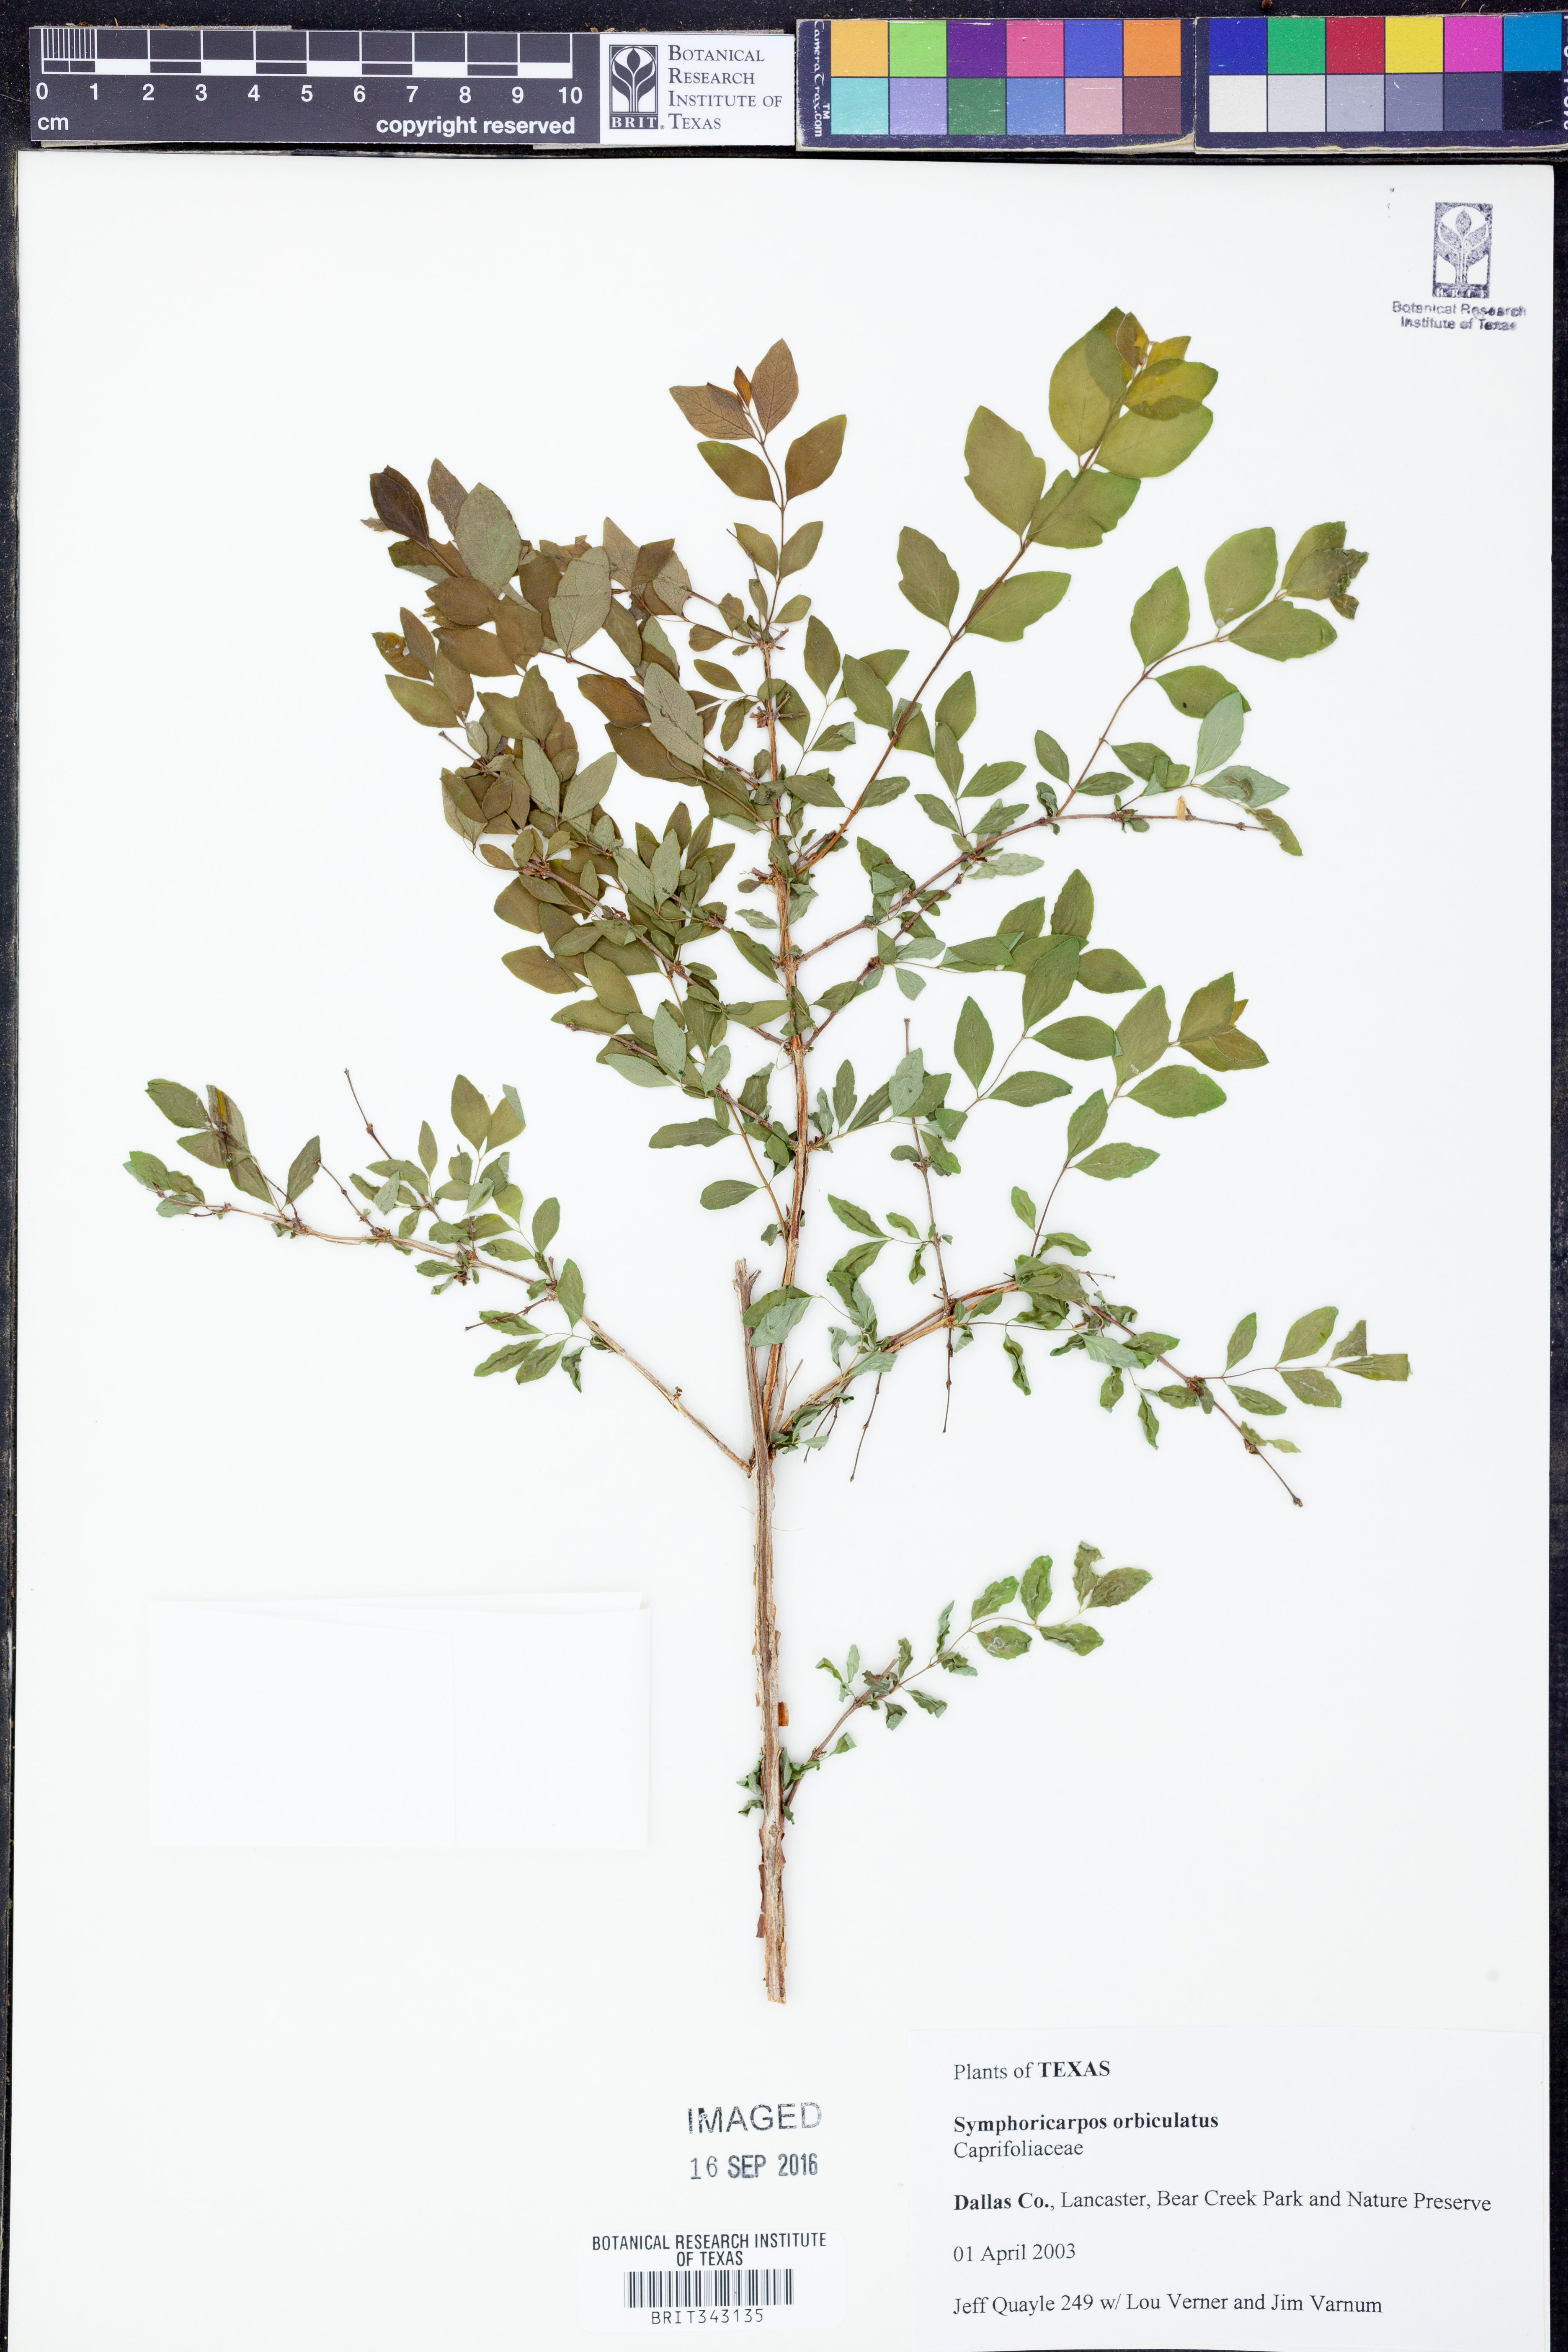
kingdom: Plantae
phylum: Tracheophyta
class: Magnoliopsida
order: Dipsacales
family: Caprifoliaceae
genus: Symphoricarpos
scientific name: Symphoricarpos orbiculatus
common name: Coralberry
